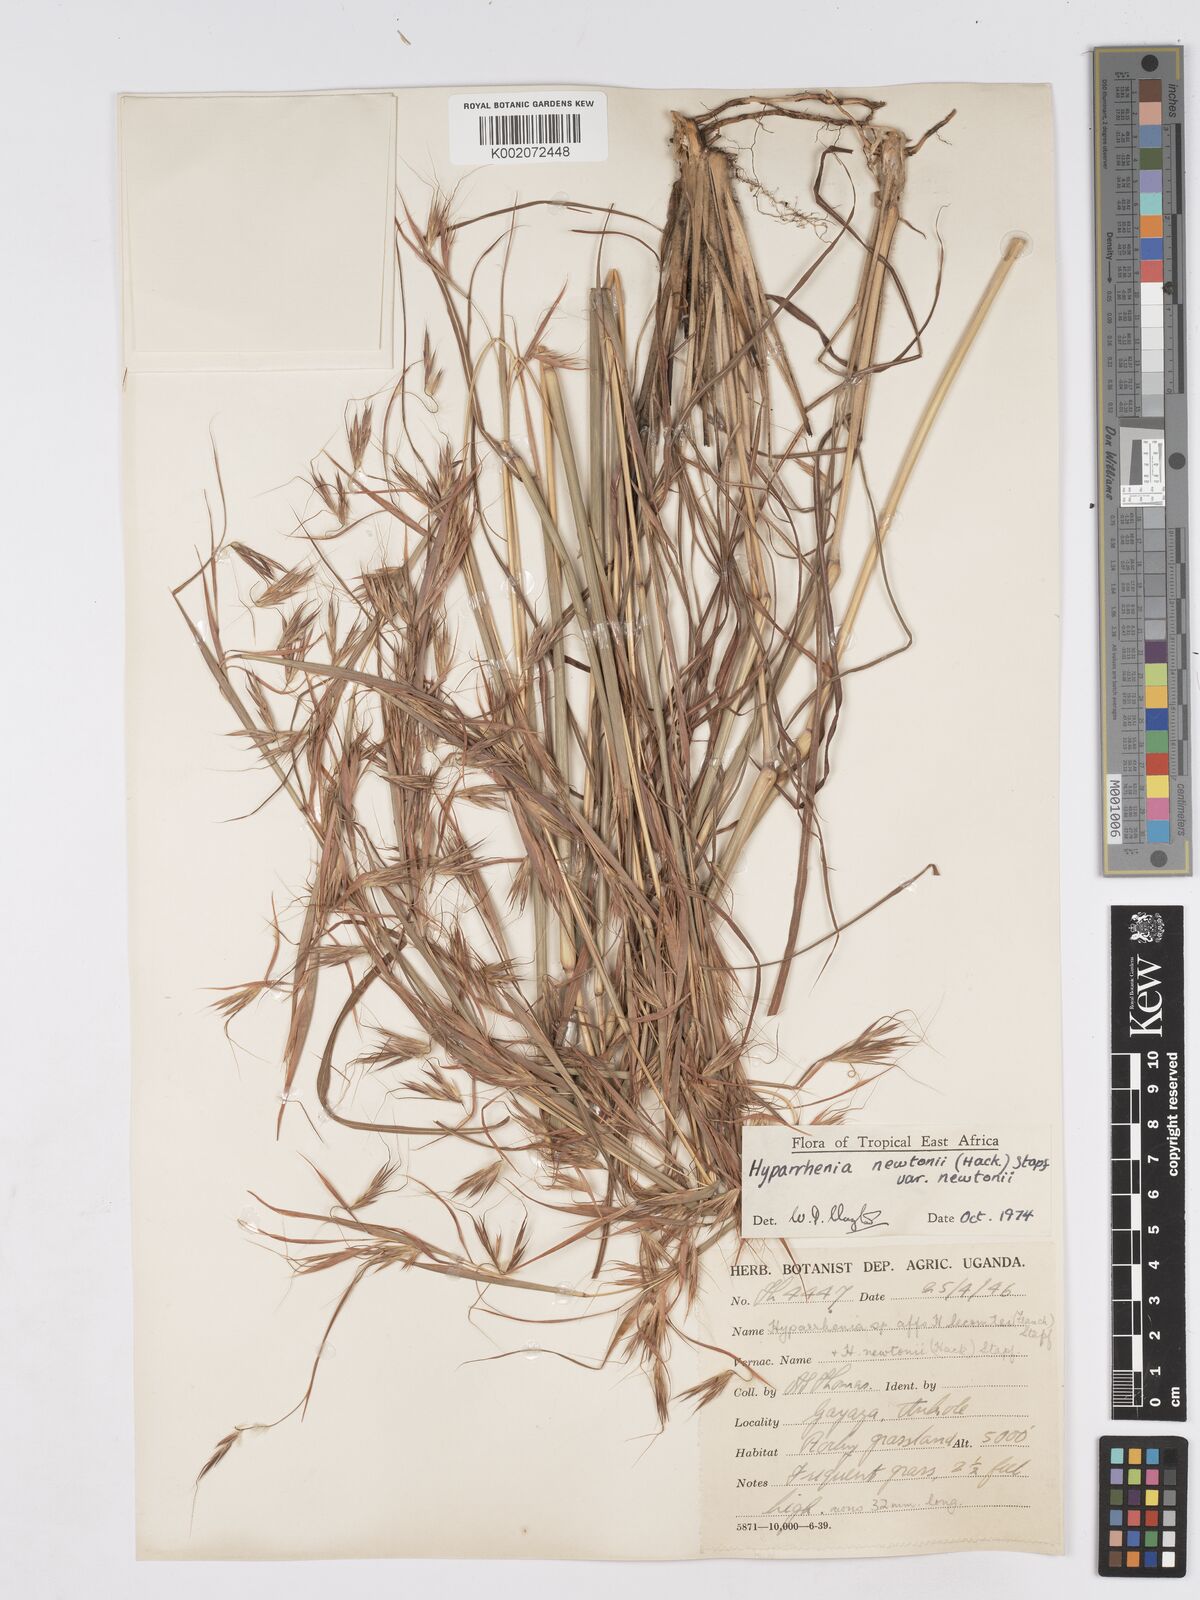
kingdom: Plantae
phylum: Tracheophyta
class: Liliopsida
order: Poales
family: Poaceae
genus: Hyparrhenia
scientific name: Hyparrhenia newtonii
